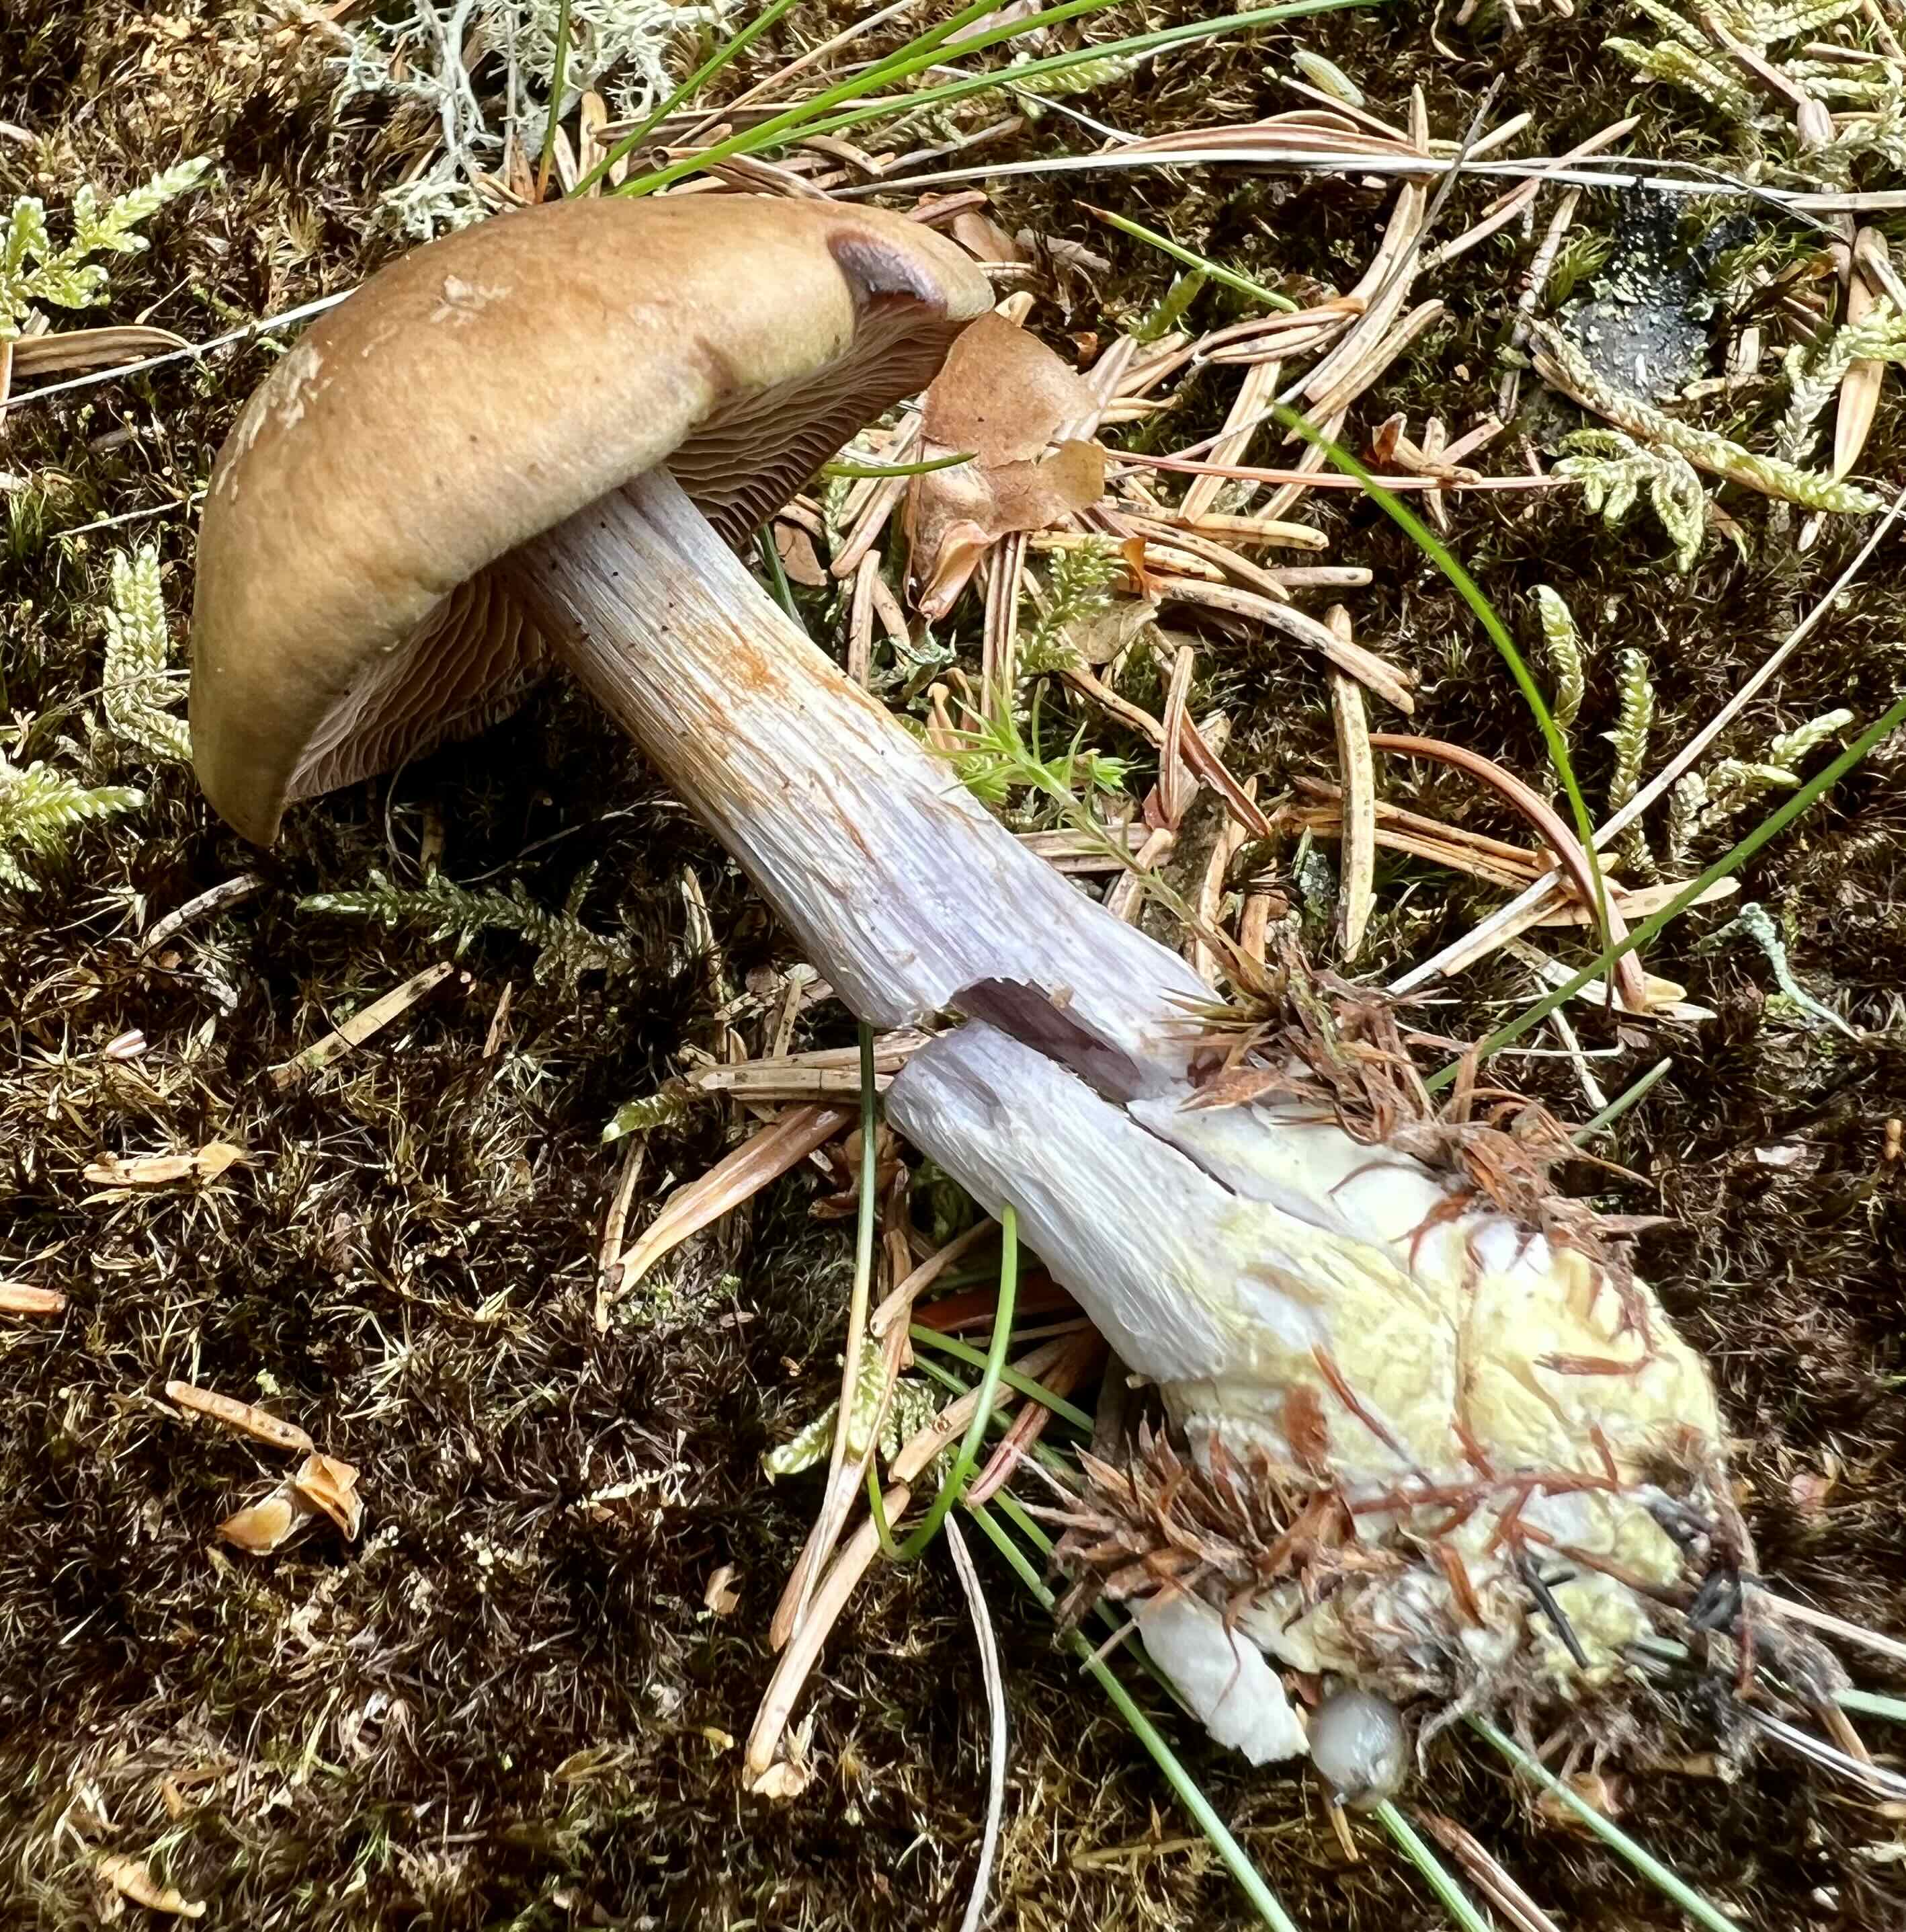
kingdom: Fungi
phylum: Basidiomycota
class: Agaricomycetes
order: Agaricales
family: Cortinariaceae
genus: Thaxterogaster
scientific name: Thaxterogaster sphagnophilus
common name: vandplettet slørhat
